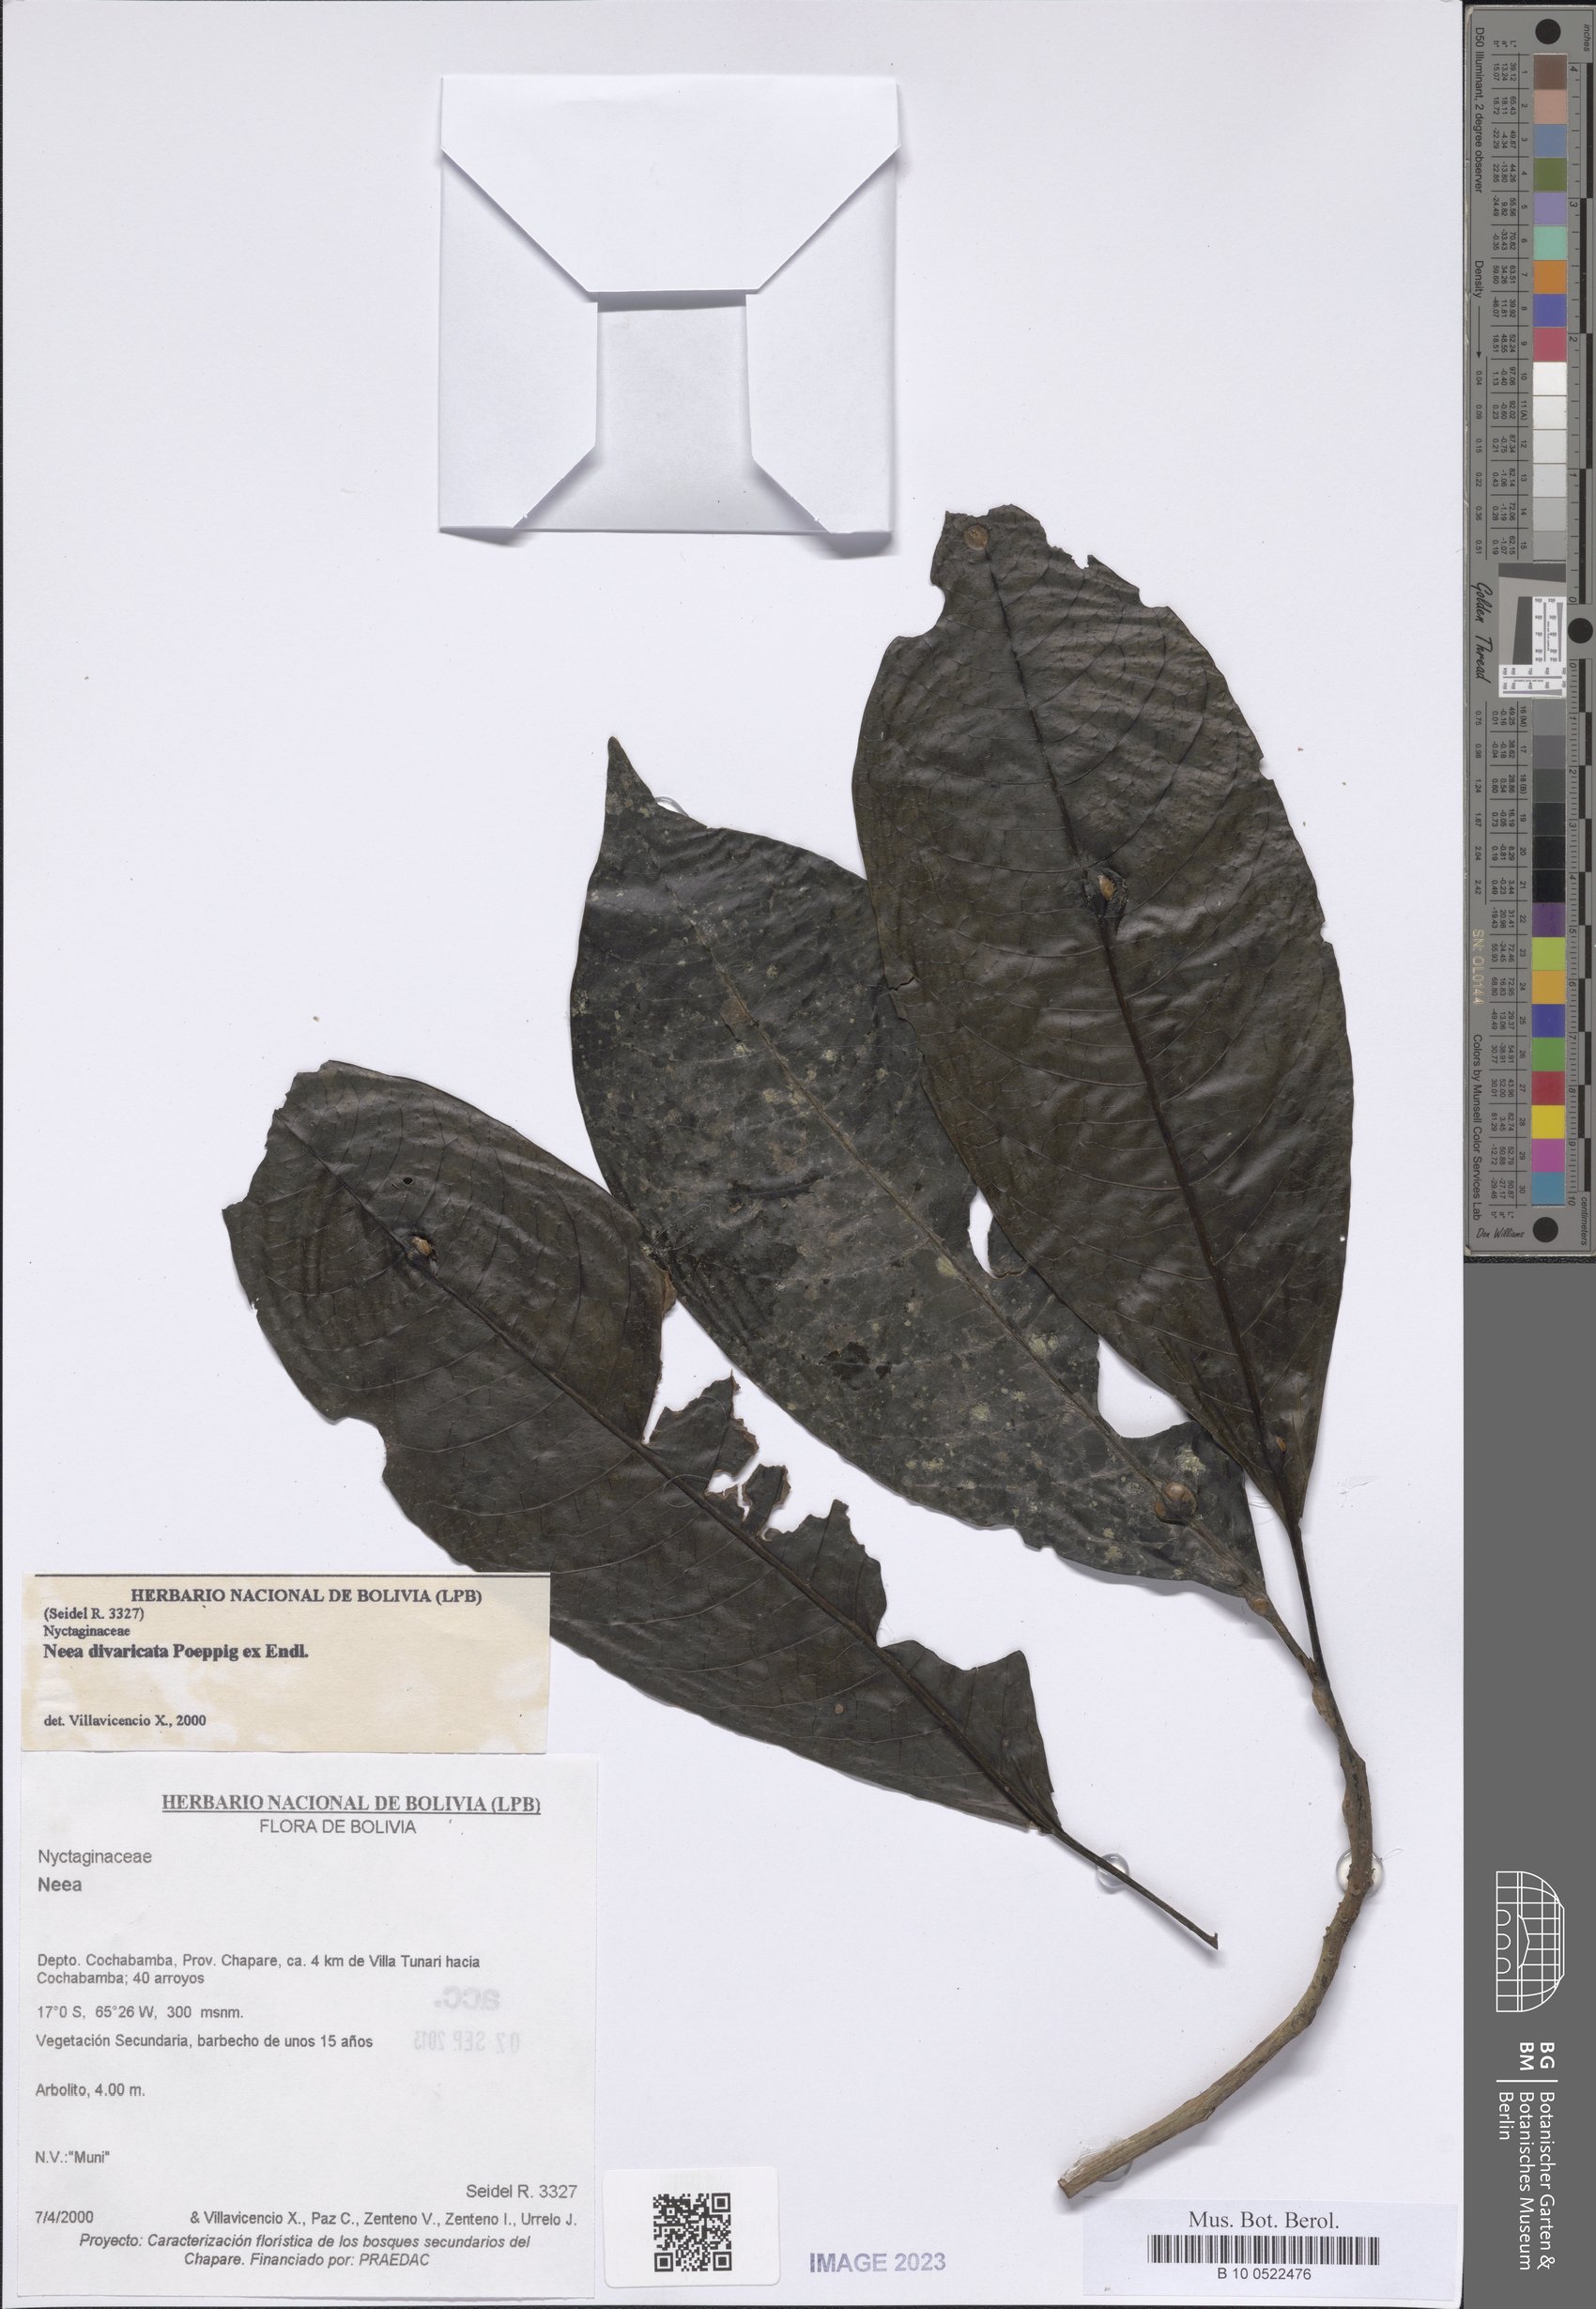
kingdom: Plantae
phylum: Tracheophyta
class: Magnoliopsida
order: Caryophyllales
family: Nyctaginaceae
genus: Neea
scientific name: Neea divaricata
